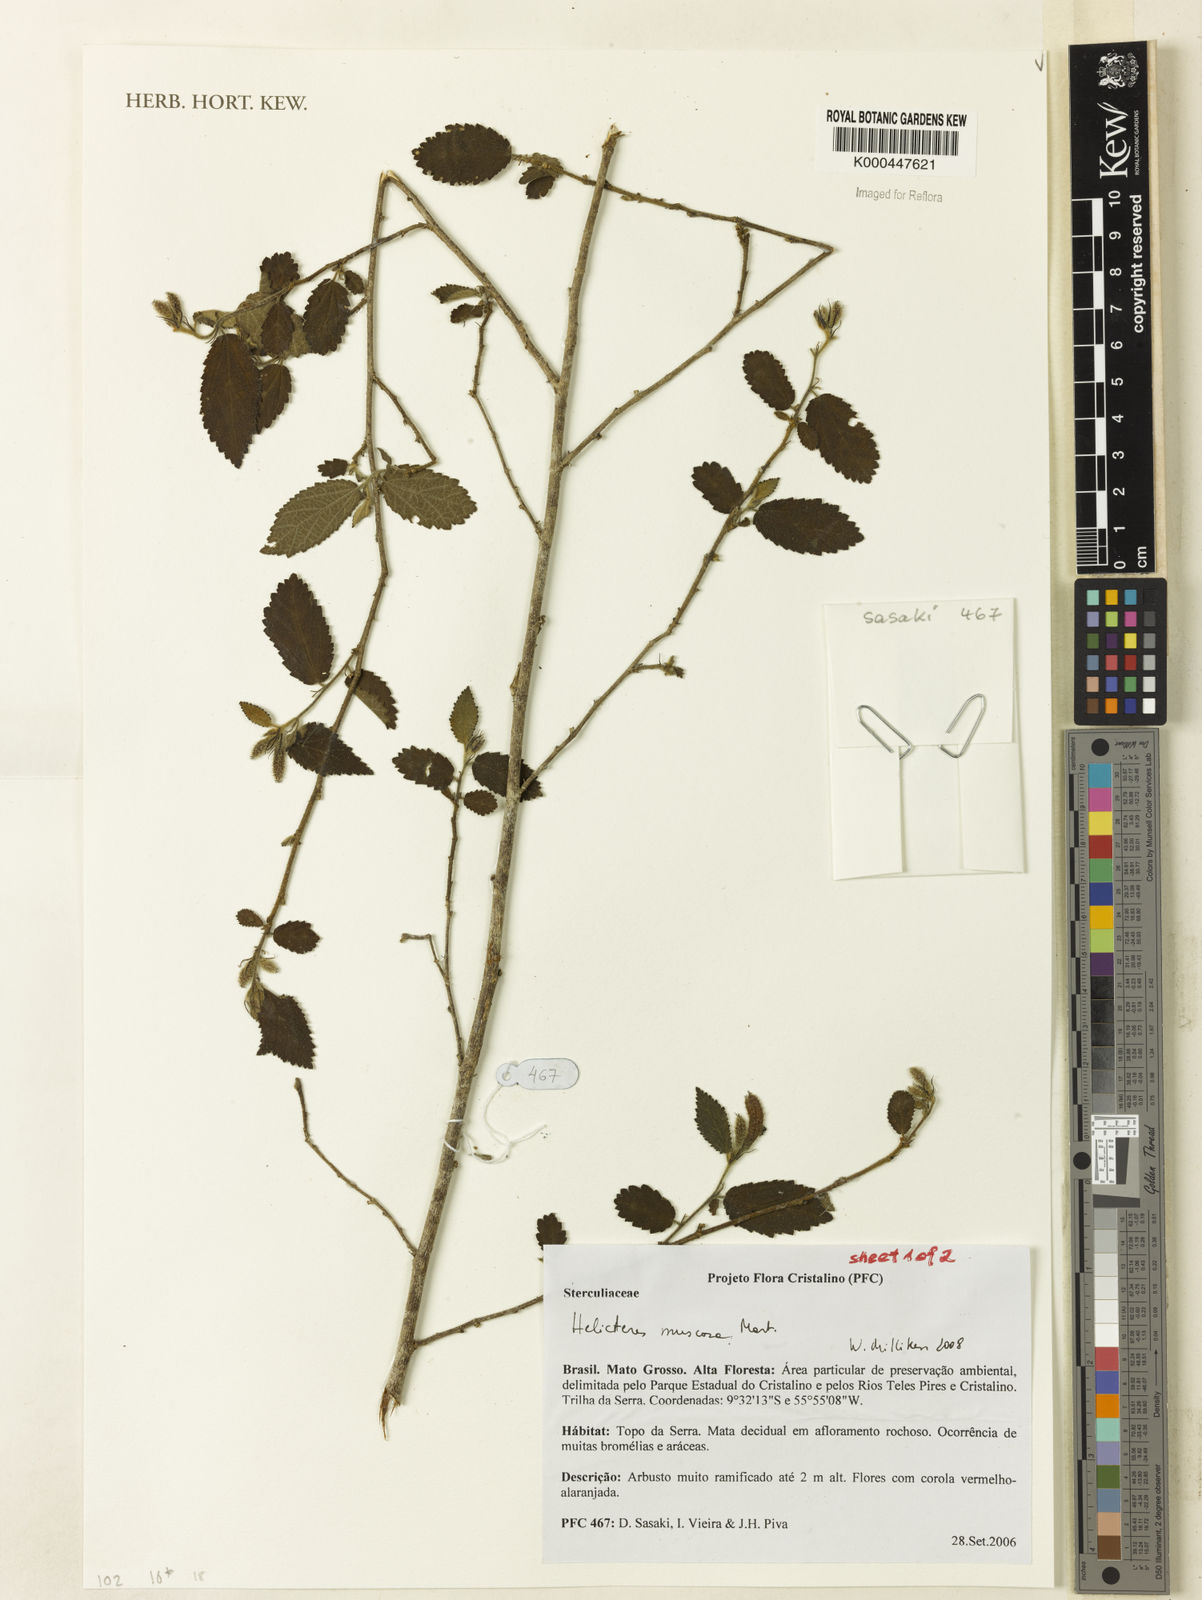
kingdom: Plantae
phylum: Tracheophyta
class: Magnoliopsida
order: Malvales
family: Malvaceae
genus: Helicteres
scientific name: Helicteres muscosa
